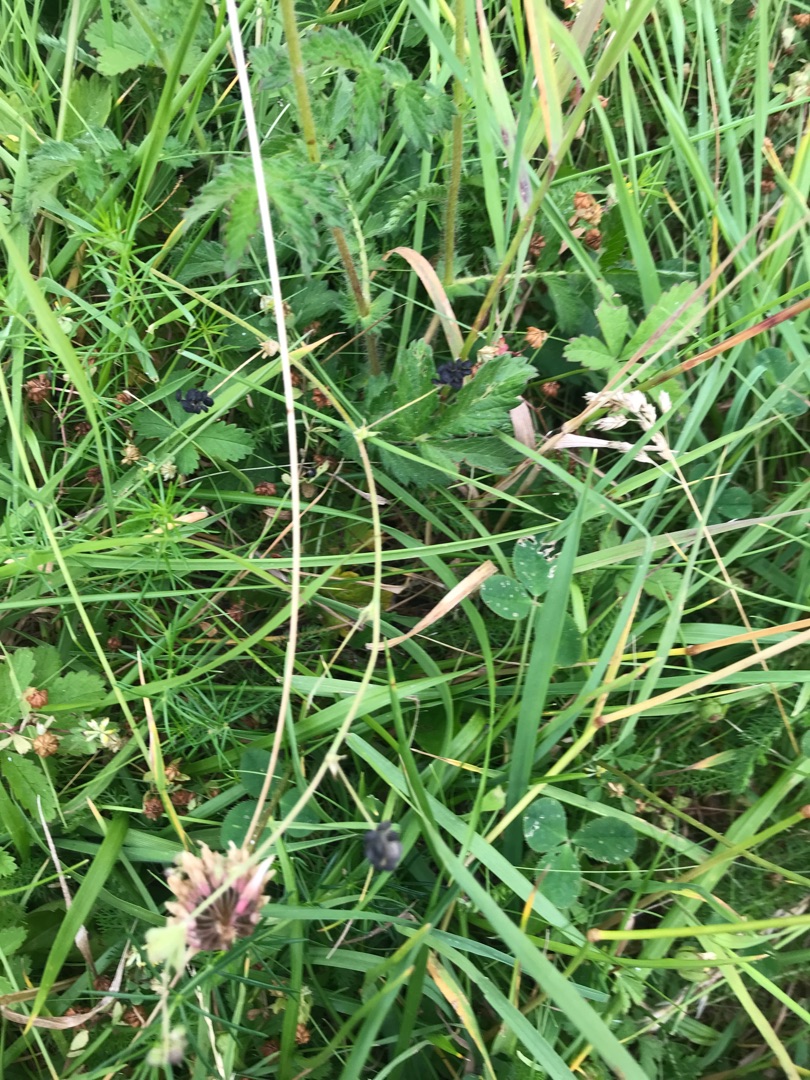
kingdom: Plantae
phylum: Tracheophyta
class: Magnoliopsida
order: Fabales
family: Fabaceae
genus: Medicago
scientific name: Medicago lupulina
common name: Humle-sneglebælg
